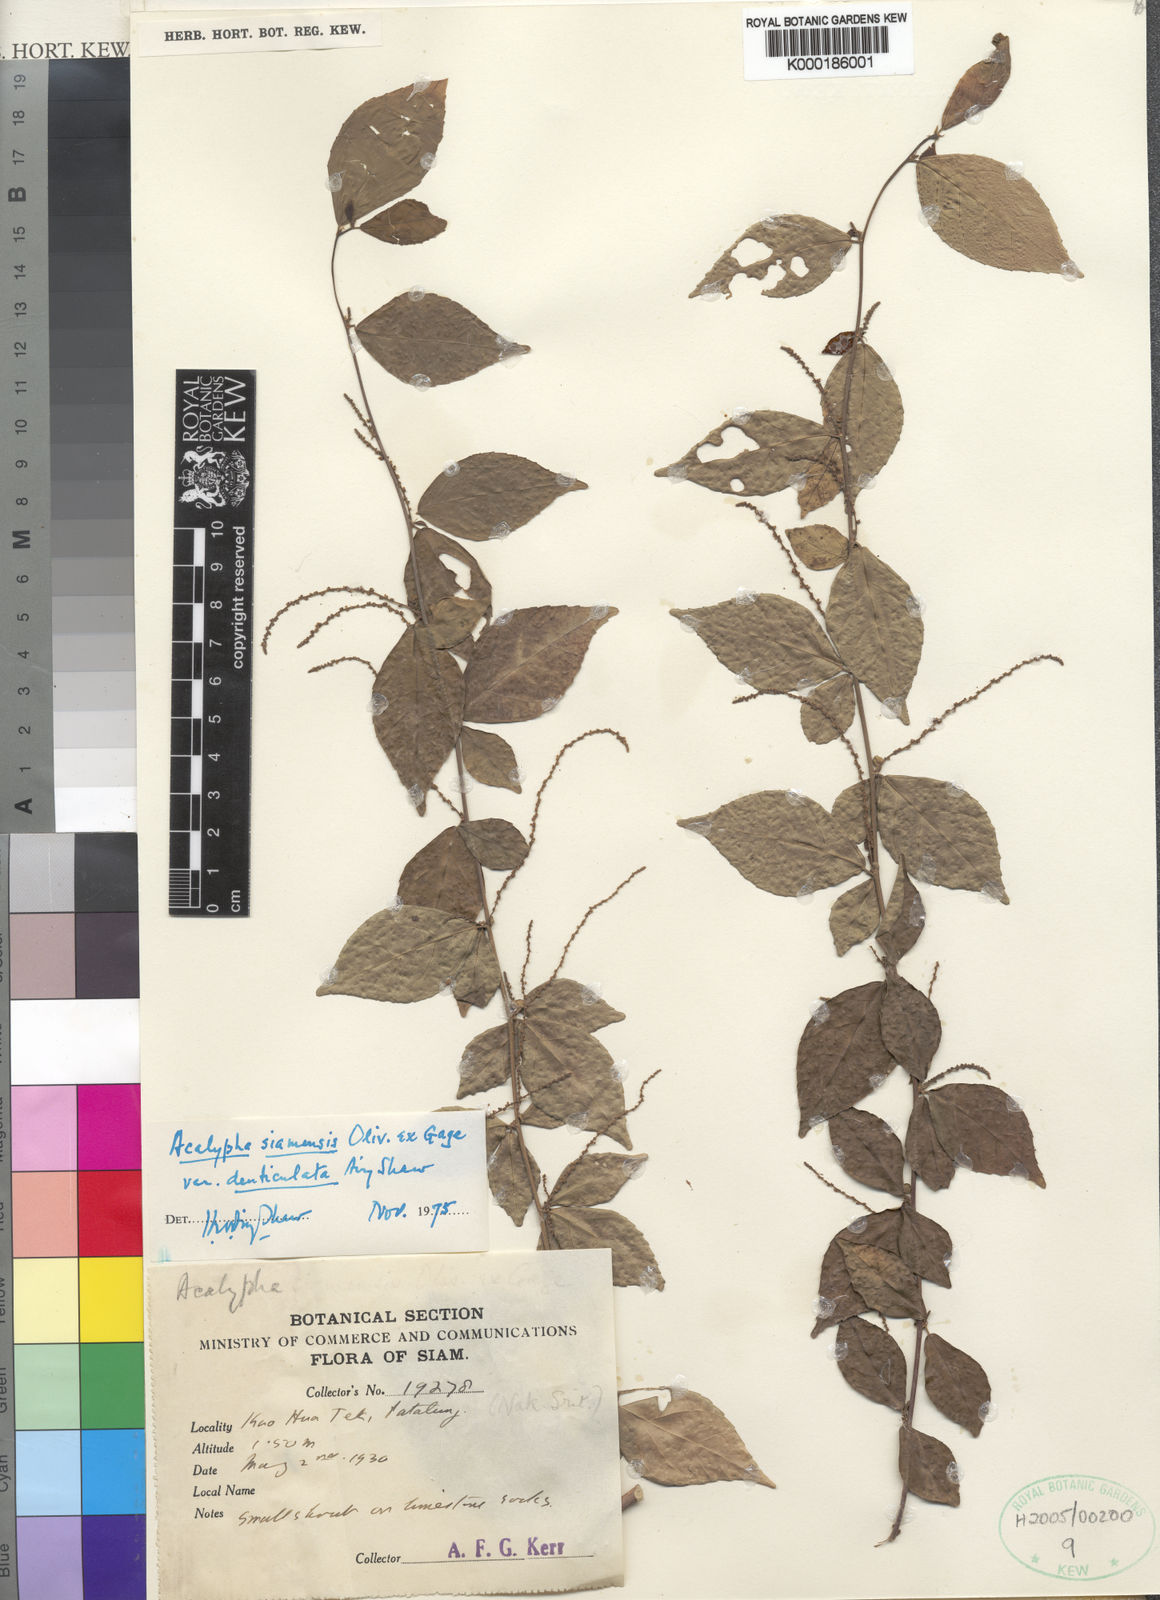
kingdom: Plantae
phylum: Tracheophyta
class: Magnoliopsida
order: Malpighiales
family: Euphorbiaceae
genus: Acalypha
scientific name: Acalypha siamensis
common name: Wild tea
